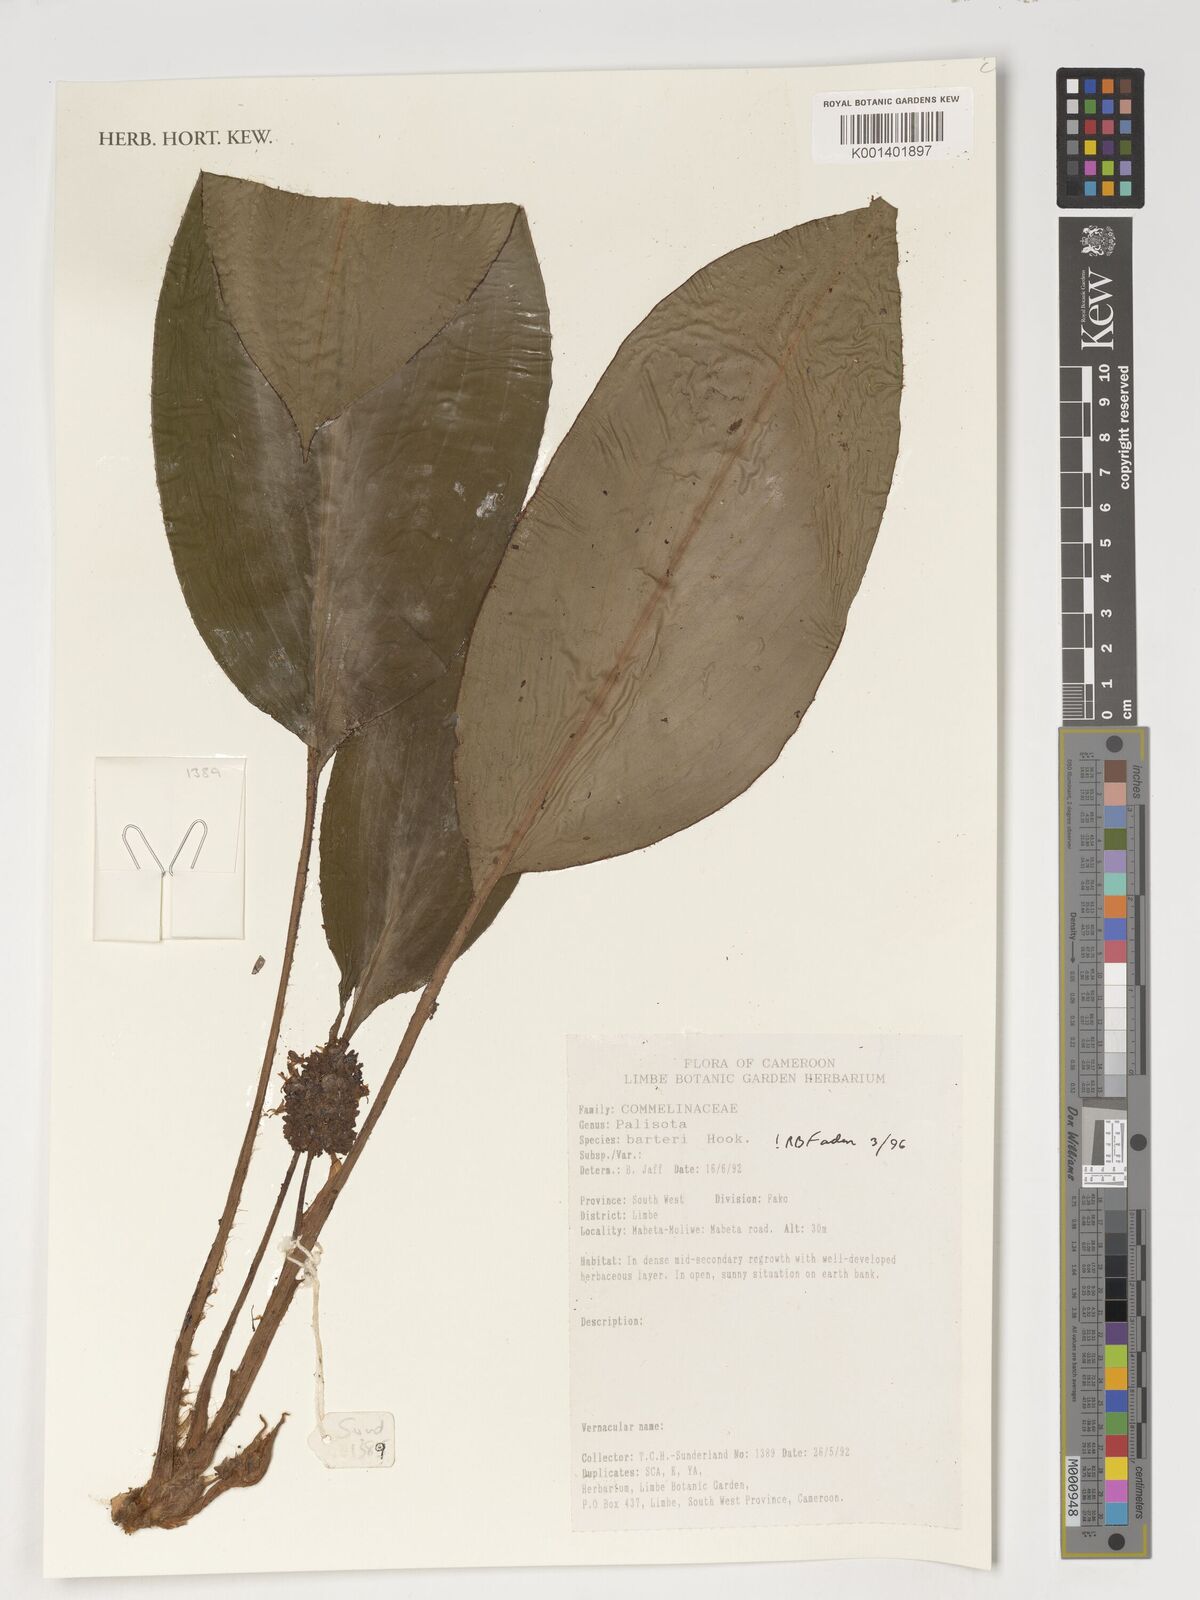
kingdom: Plantae
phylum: Tracheophyta
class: Liliopsida
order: Commelinales
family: Commelinaceae
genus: Palisota
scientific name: Palisota barteri
